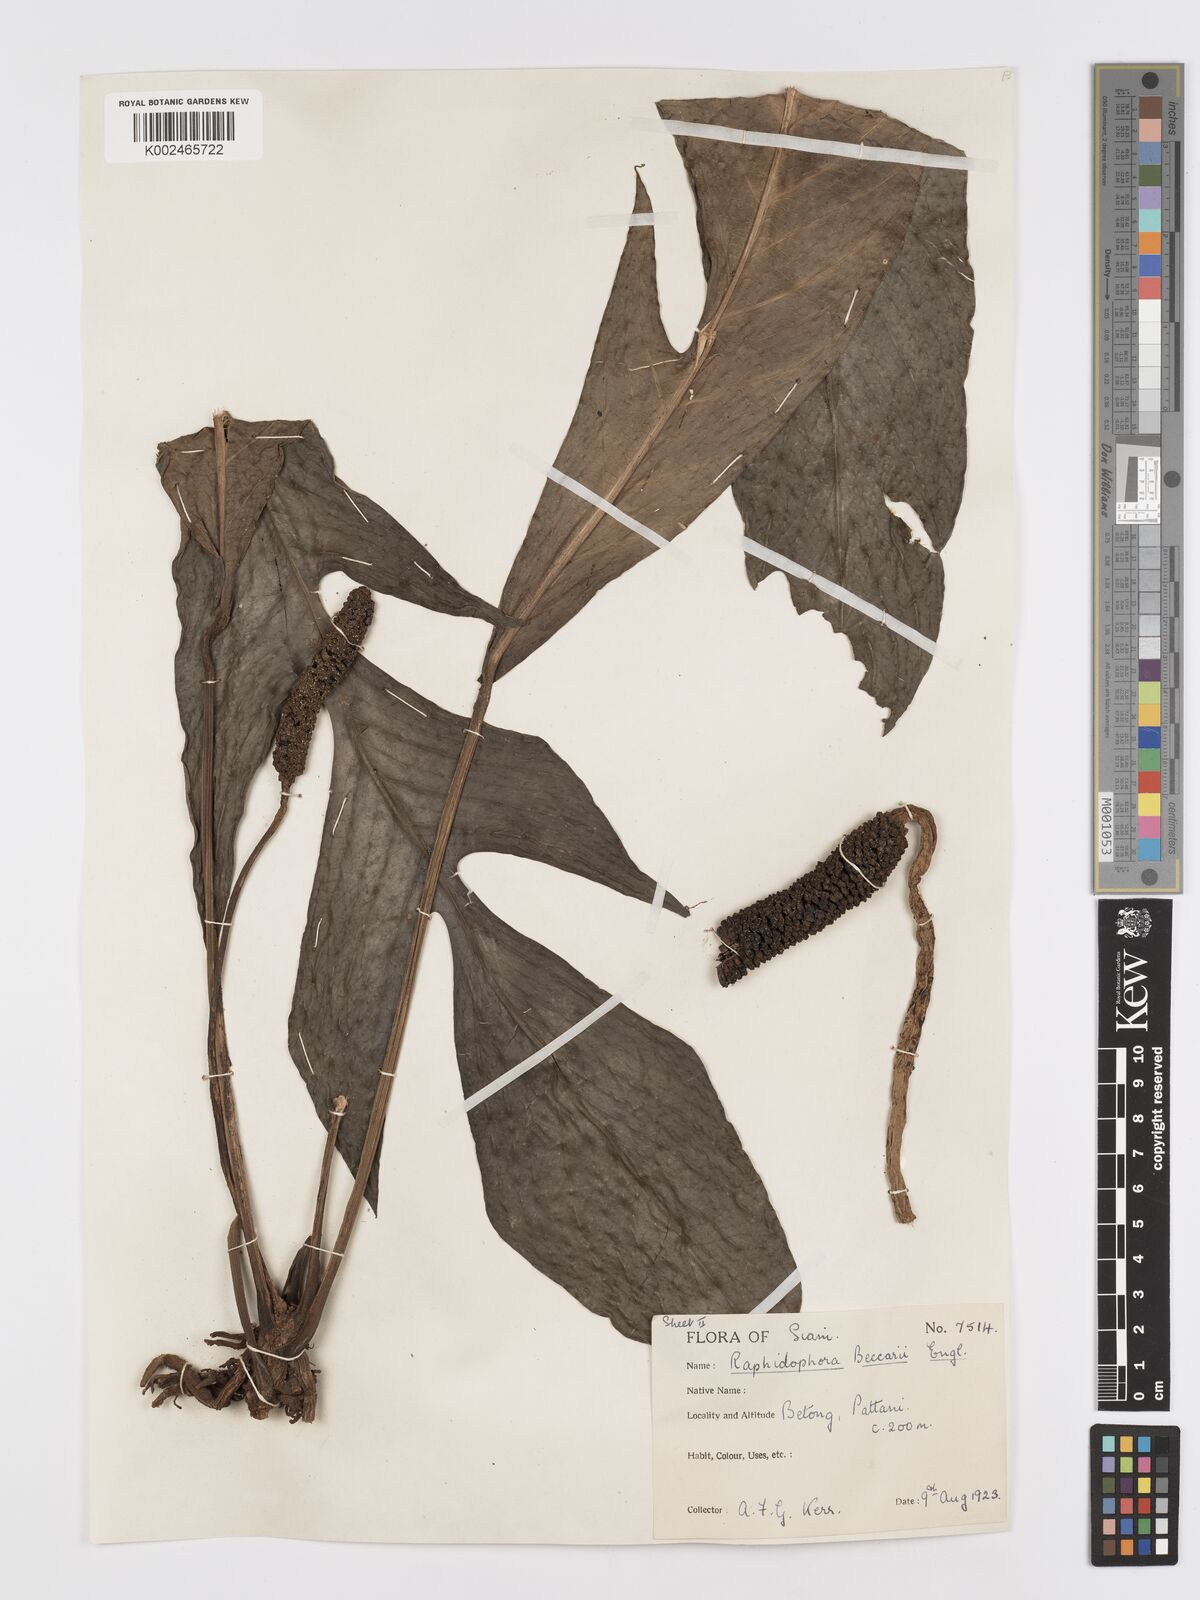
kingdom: Plantae
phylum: Tracheophyta
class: Liliopsida
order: Alismatales
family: Araceae
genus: Rhaphidophora
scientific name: Rhaphidophora beccarii
